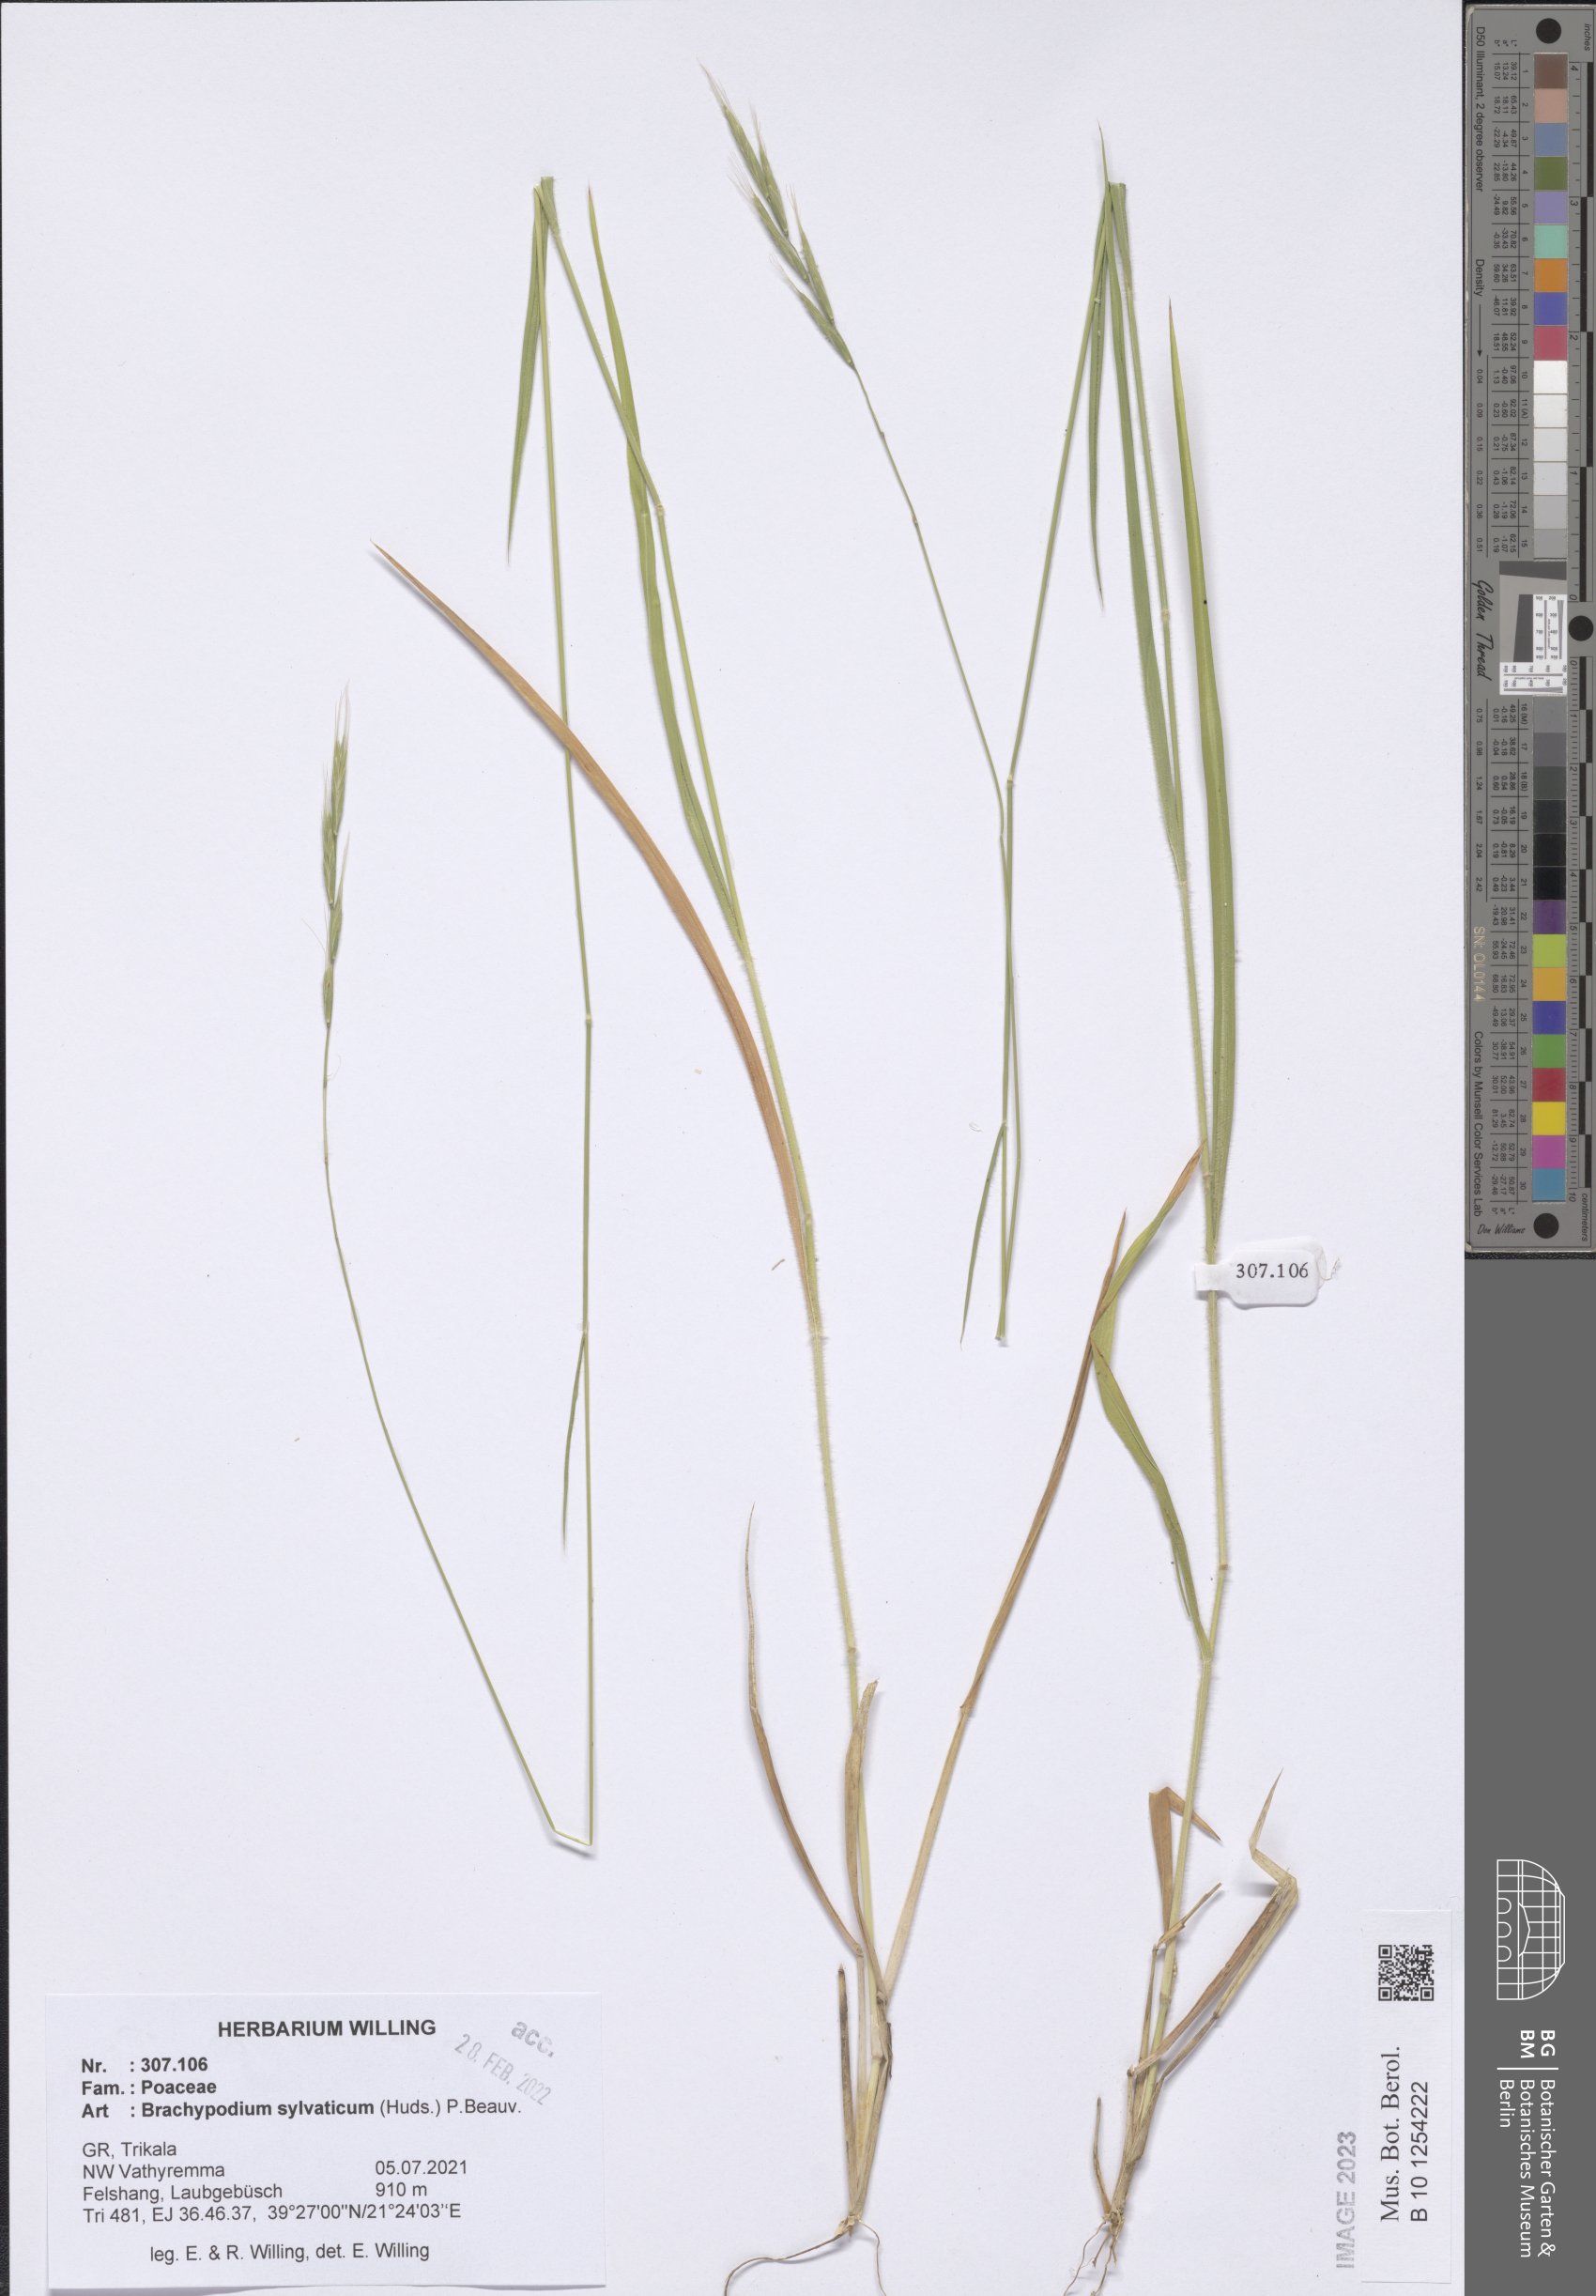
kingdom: Plantae
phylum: Tracheophyta
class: Liliopsida
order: Poales
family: Poaceae
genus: Brachypodium
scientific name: Brachypodium sylvaticum
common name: False-brome
